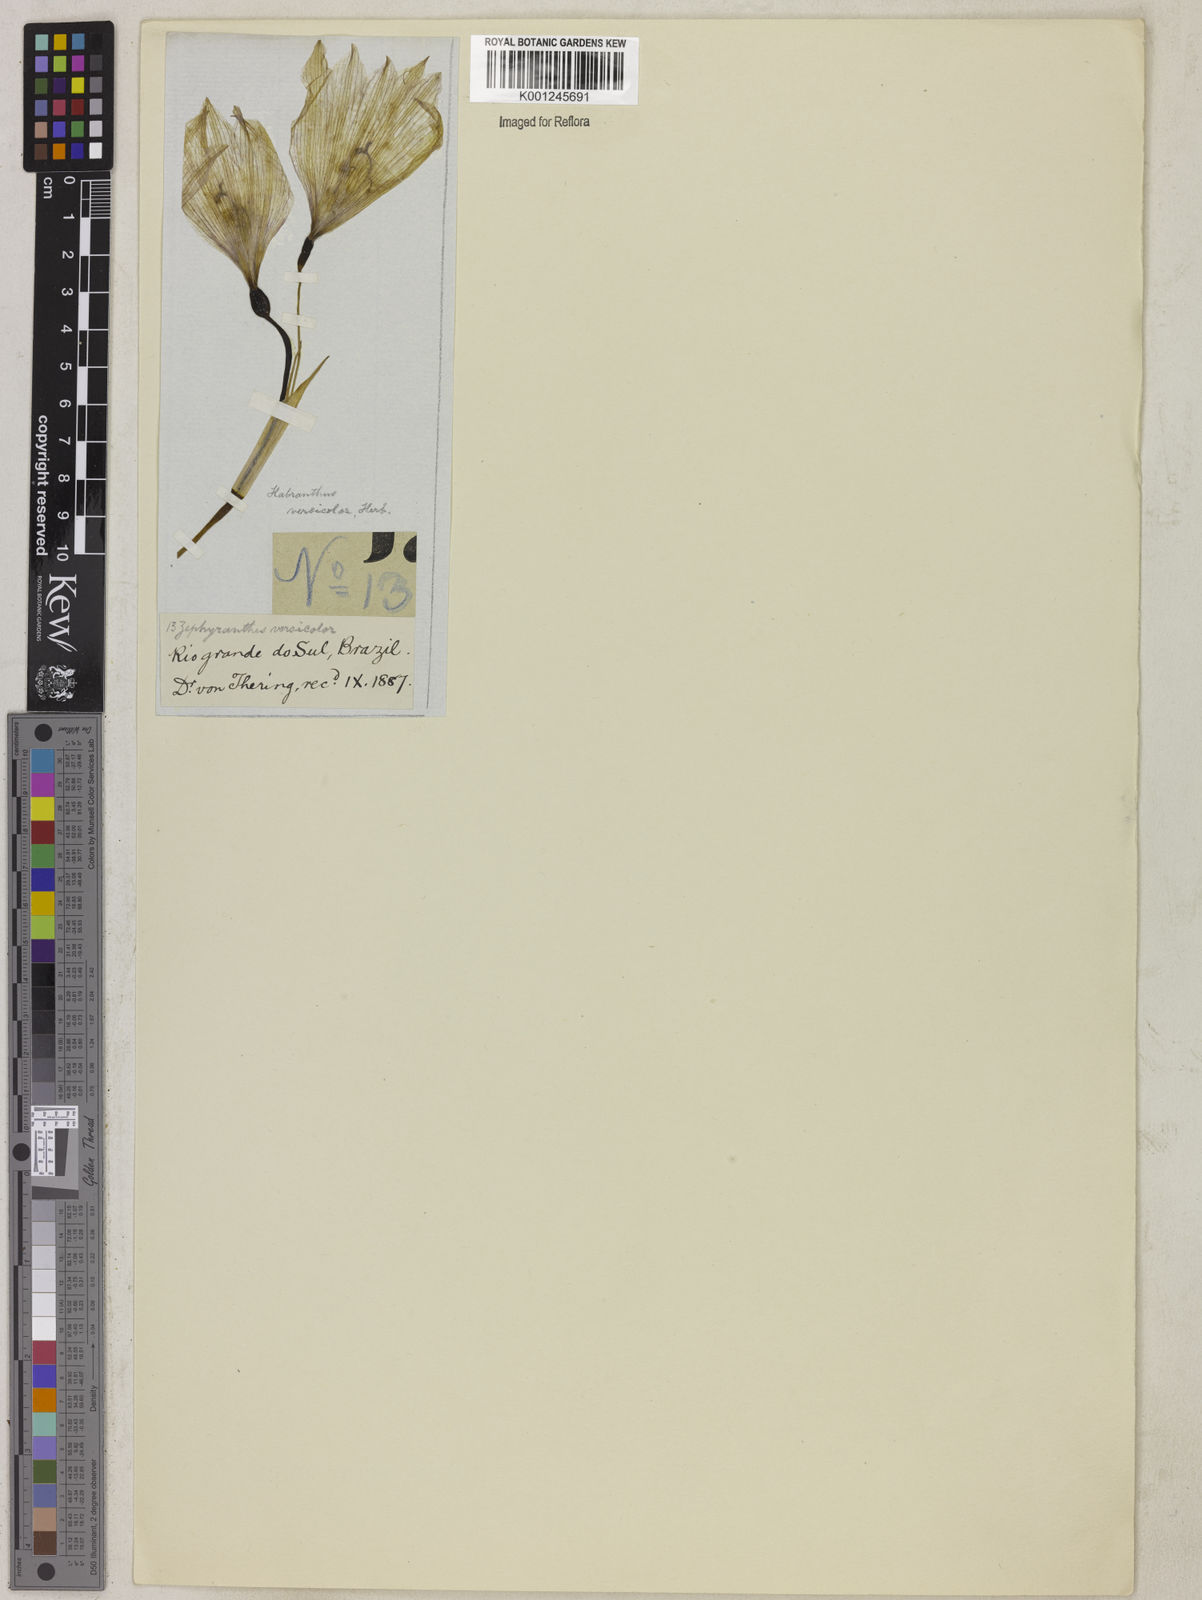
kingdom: Plantae
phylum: Tracheophyta
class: Liliopsida
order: Asparagales
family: Amaryllidaceae
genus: Zephyranthes
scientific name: Zephyranthes versicolor
